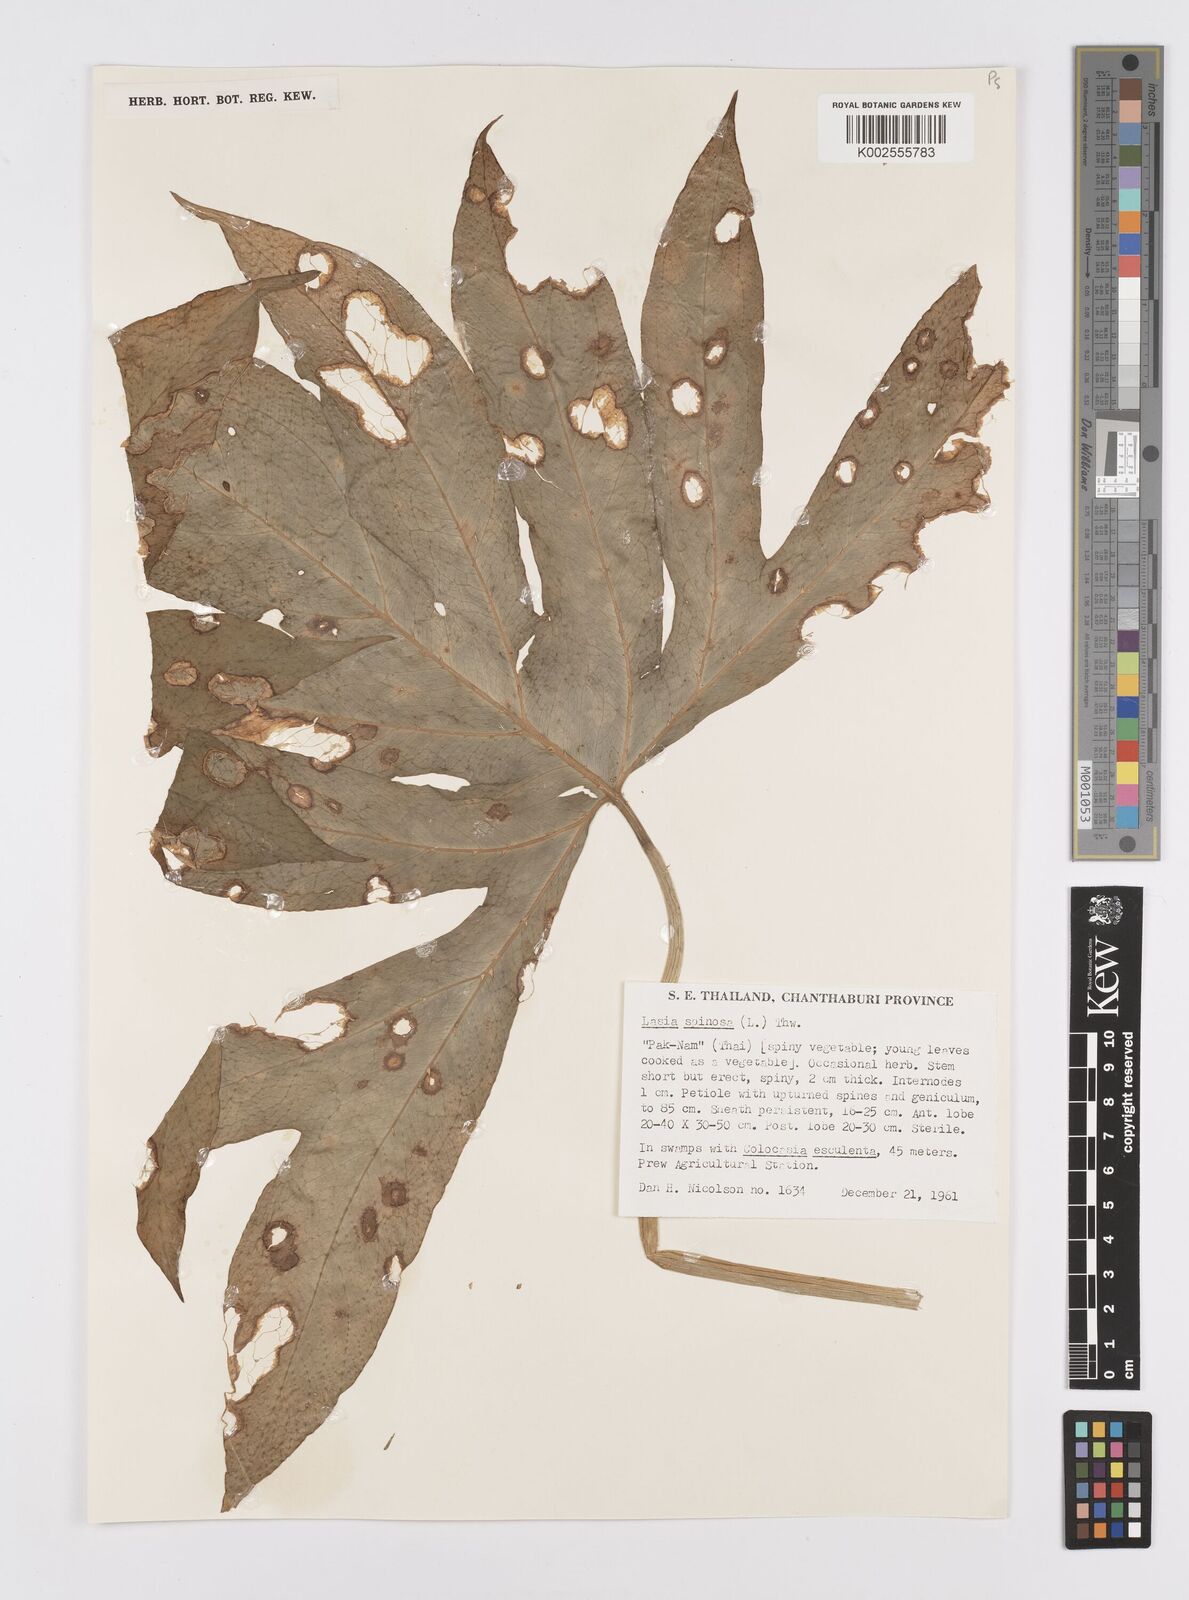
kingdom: Plantae
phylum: Tracheophyta
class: Liliopsida
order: Alismatales
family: Araceae
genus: Lasia
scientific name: Lasia spinosa
